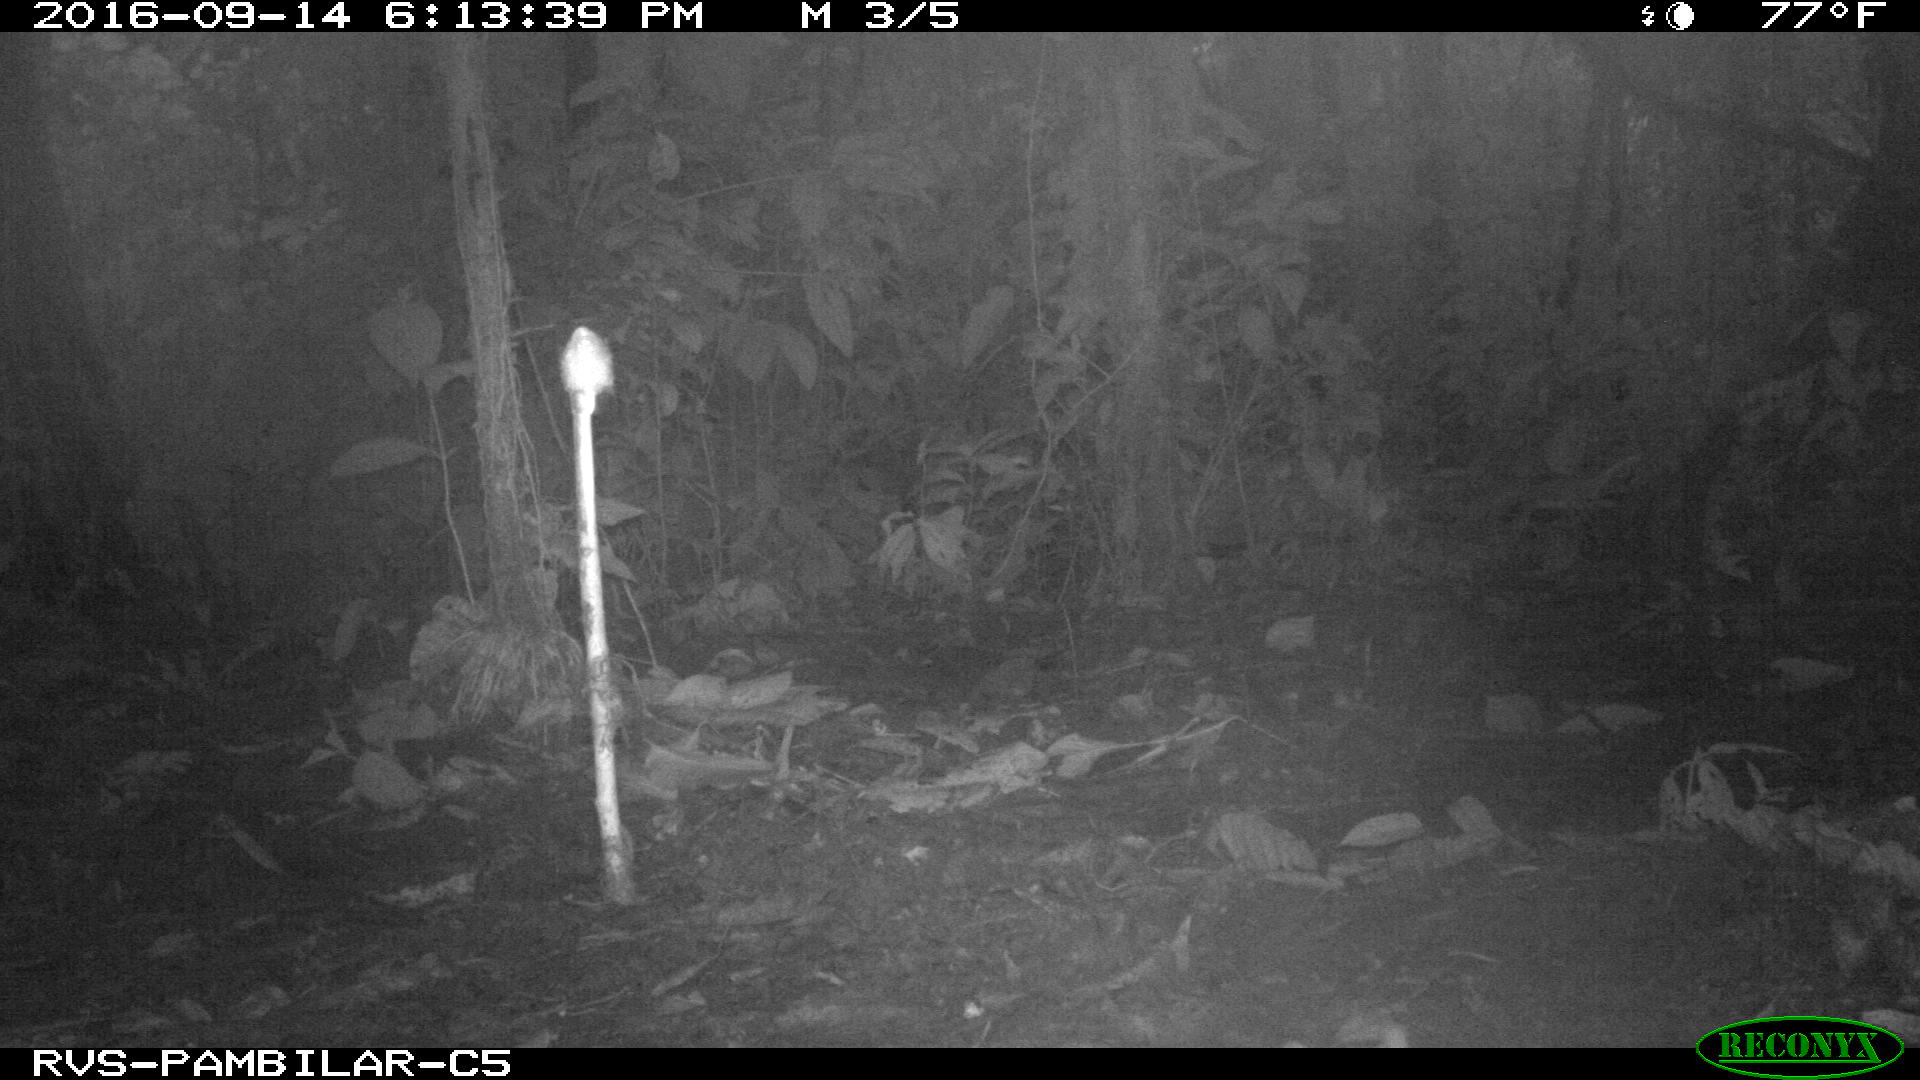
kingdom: Animalia
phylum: Chordata
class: Mammalia
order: Rodentia
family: Dasyproctidae
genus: Dasyprocta
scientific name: Dasyprocta punctata
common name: Central american agouti
